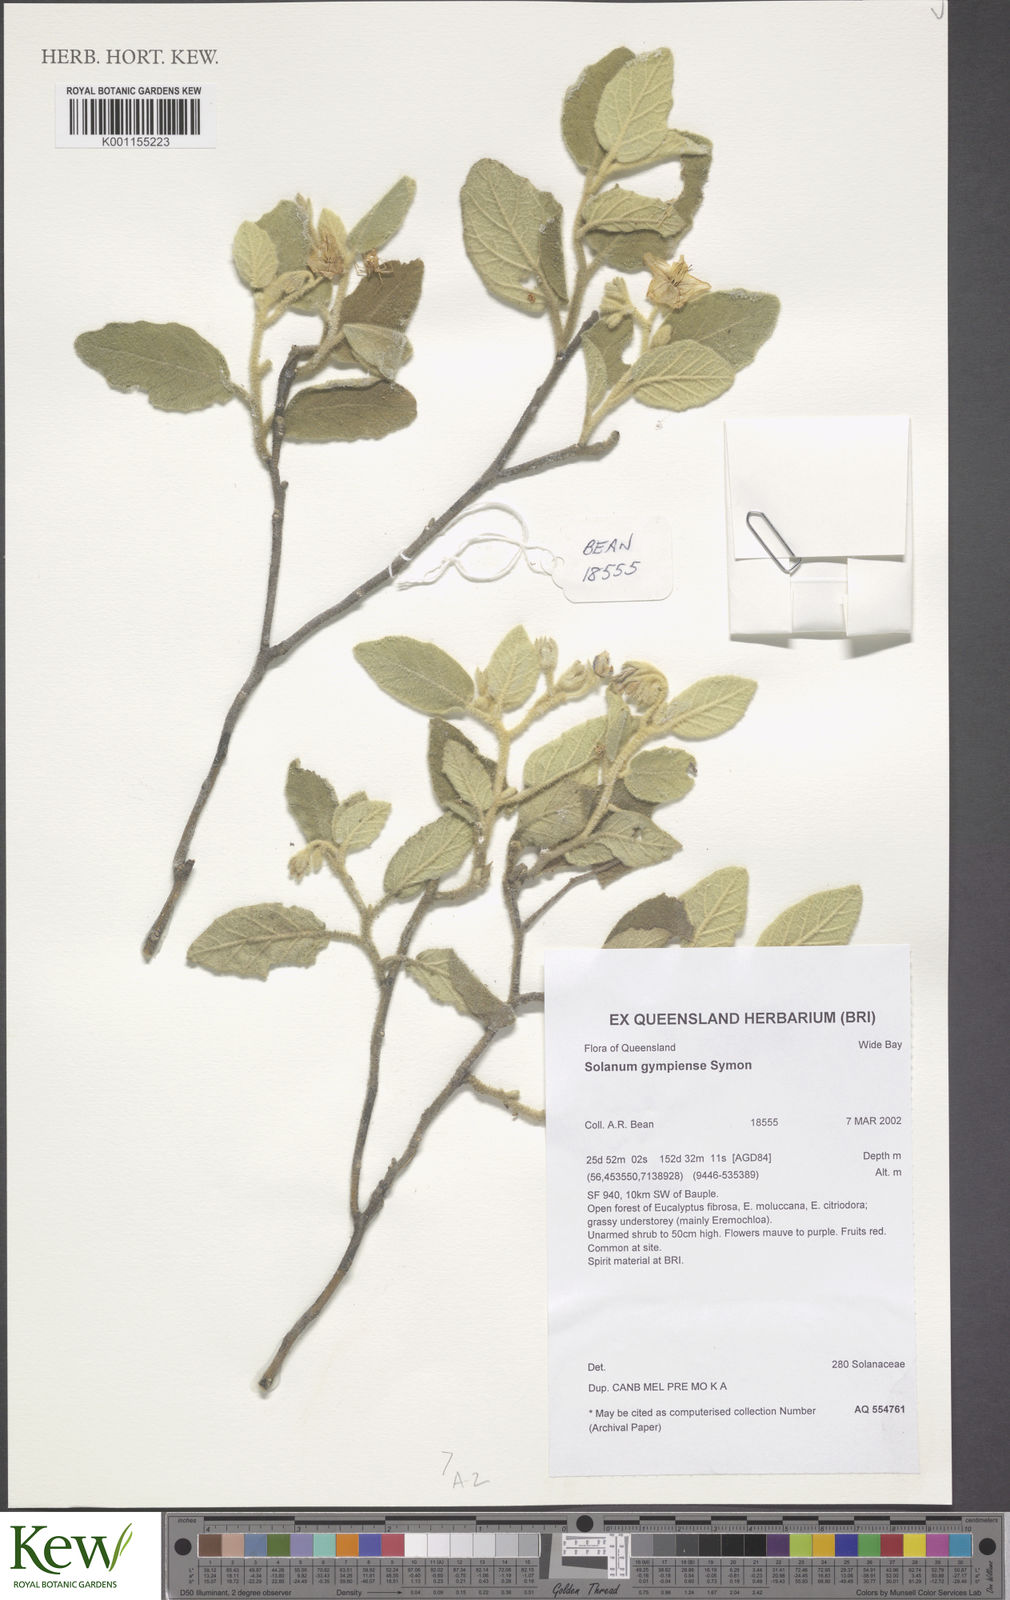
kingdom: Plantae
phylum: Tracheophyta
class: Magnoliopsida
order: Solanales
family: Solanaceae
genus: Solanum
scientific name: Solanum gympiense
